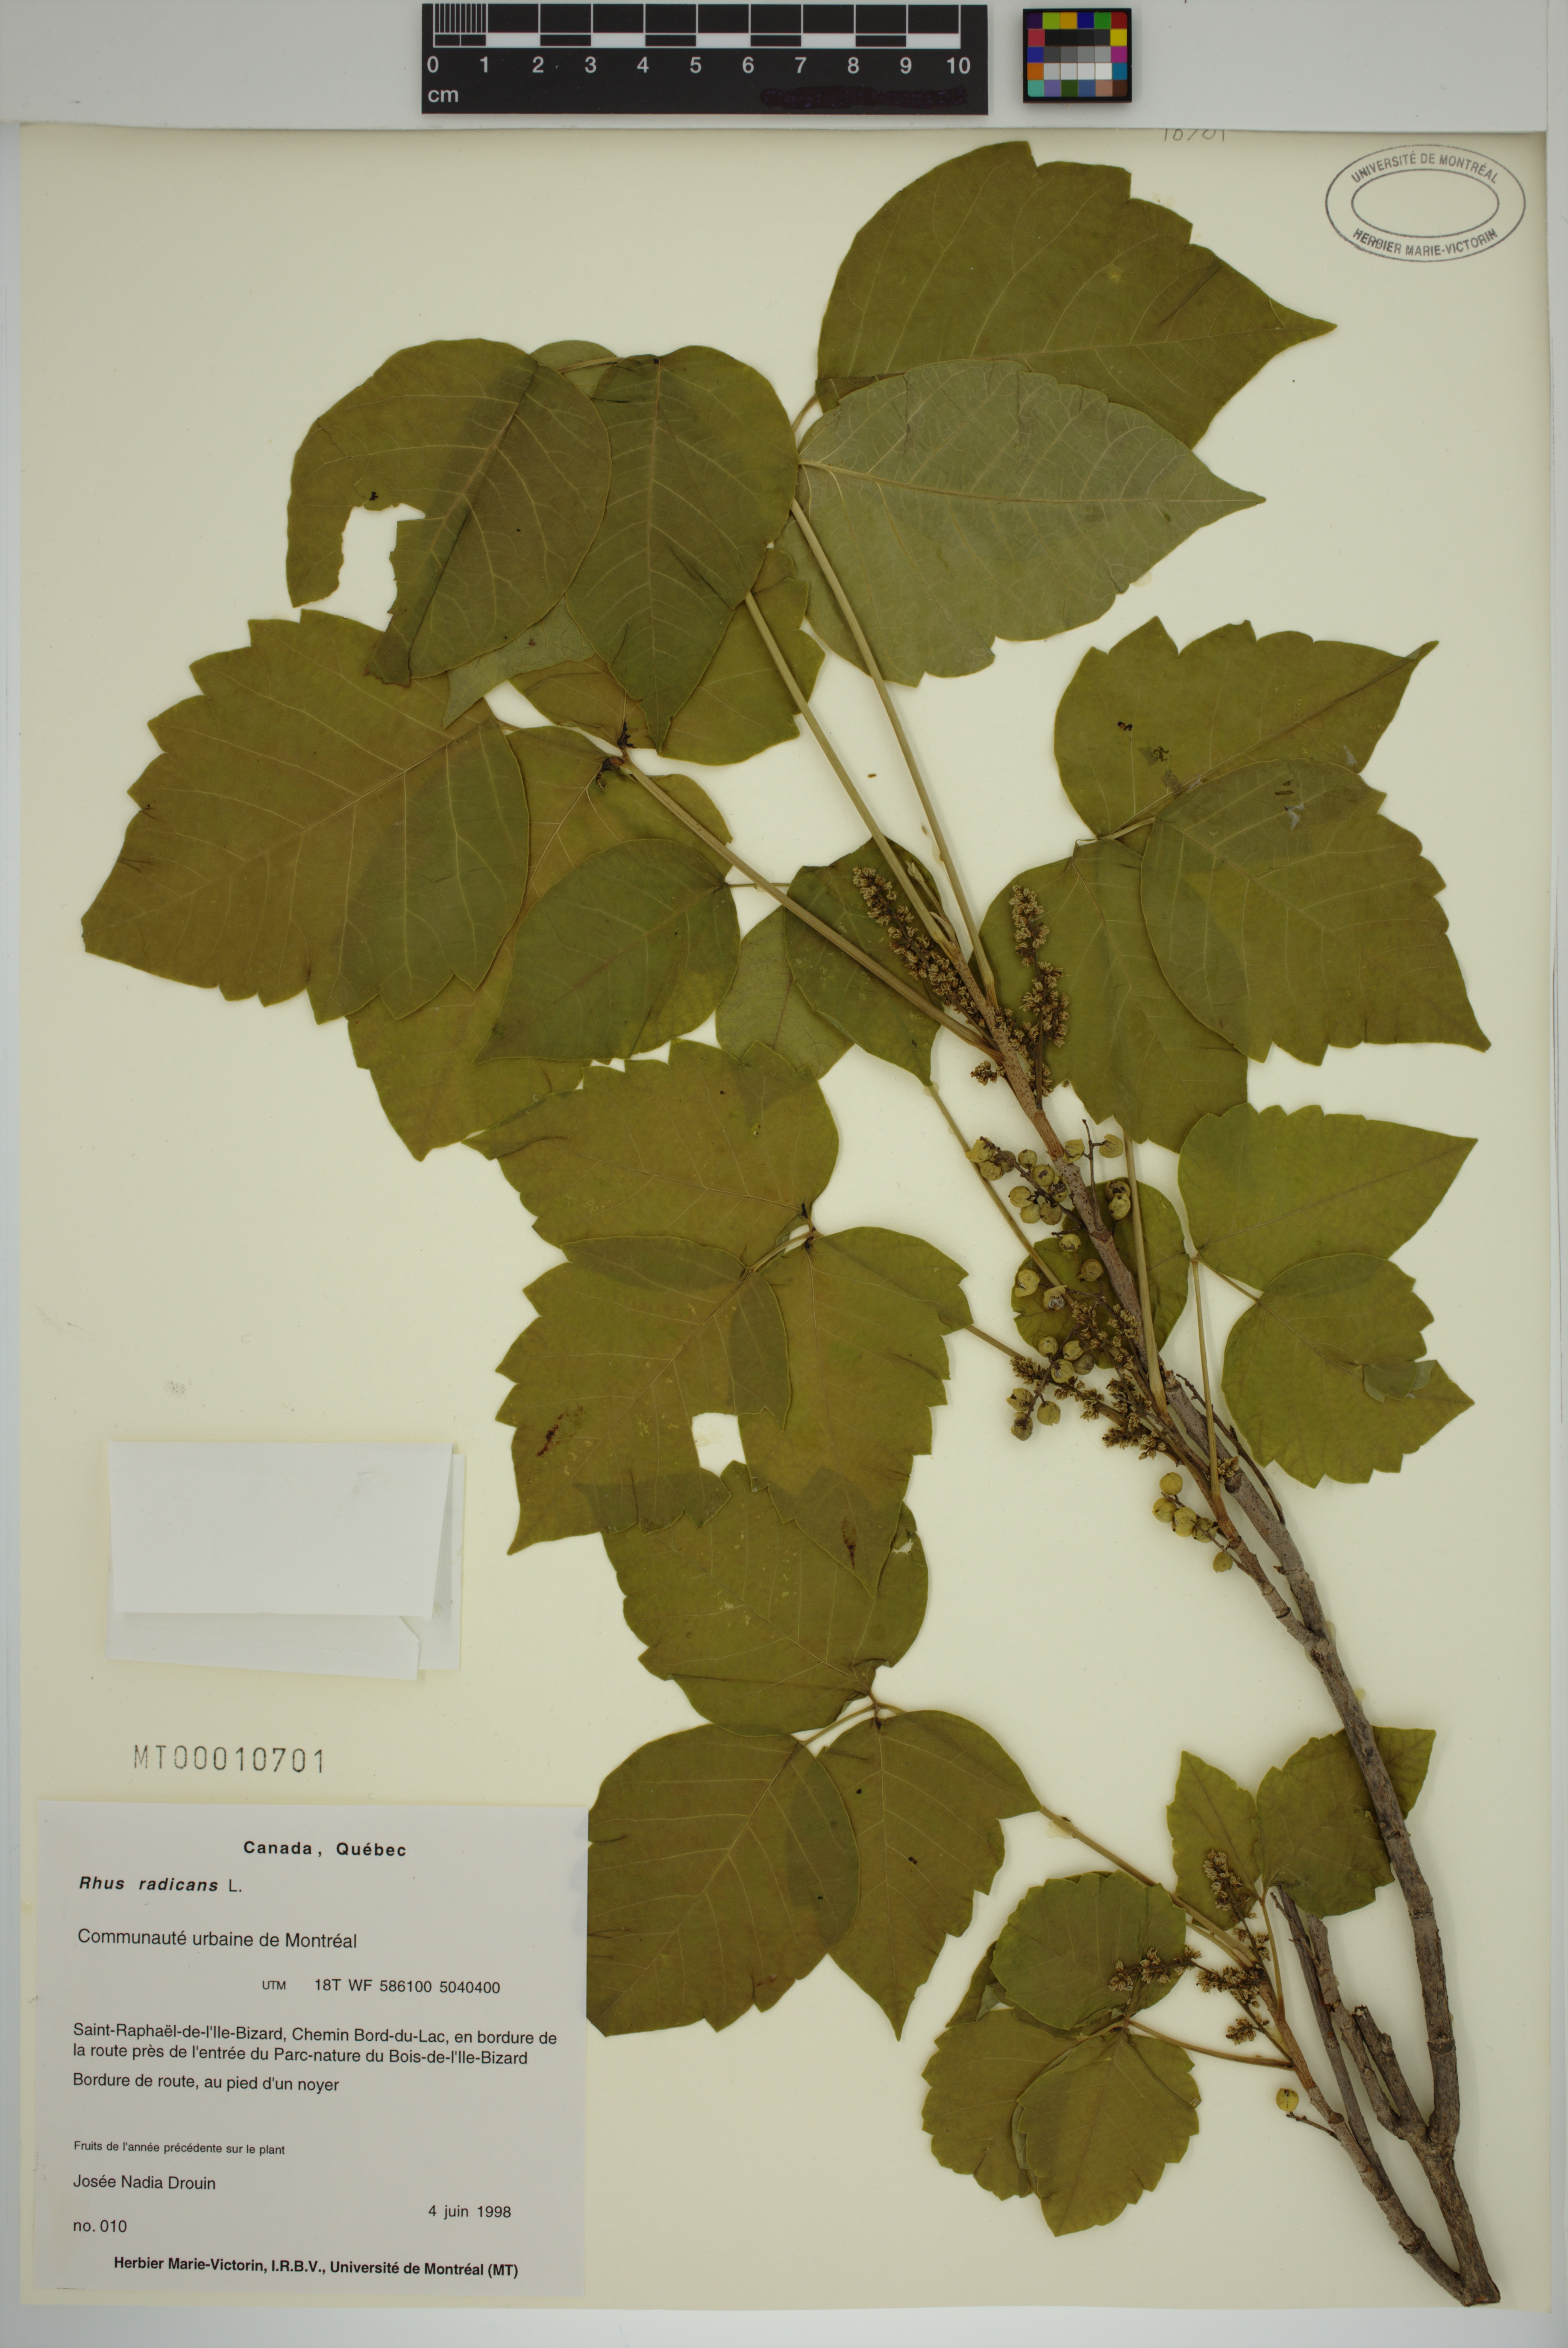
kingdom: Plantae
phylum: Tracheophyta
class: Magnoliopsida
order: Sapindales
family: Anacardiaceae
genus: Toxicodendron
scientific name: Toxicodendron radicans
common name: Poison ivy
